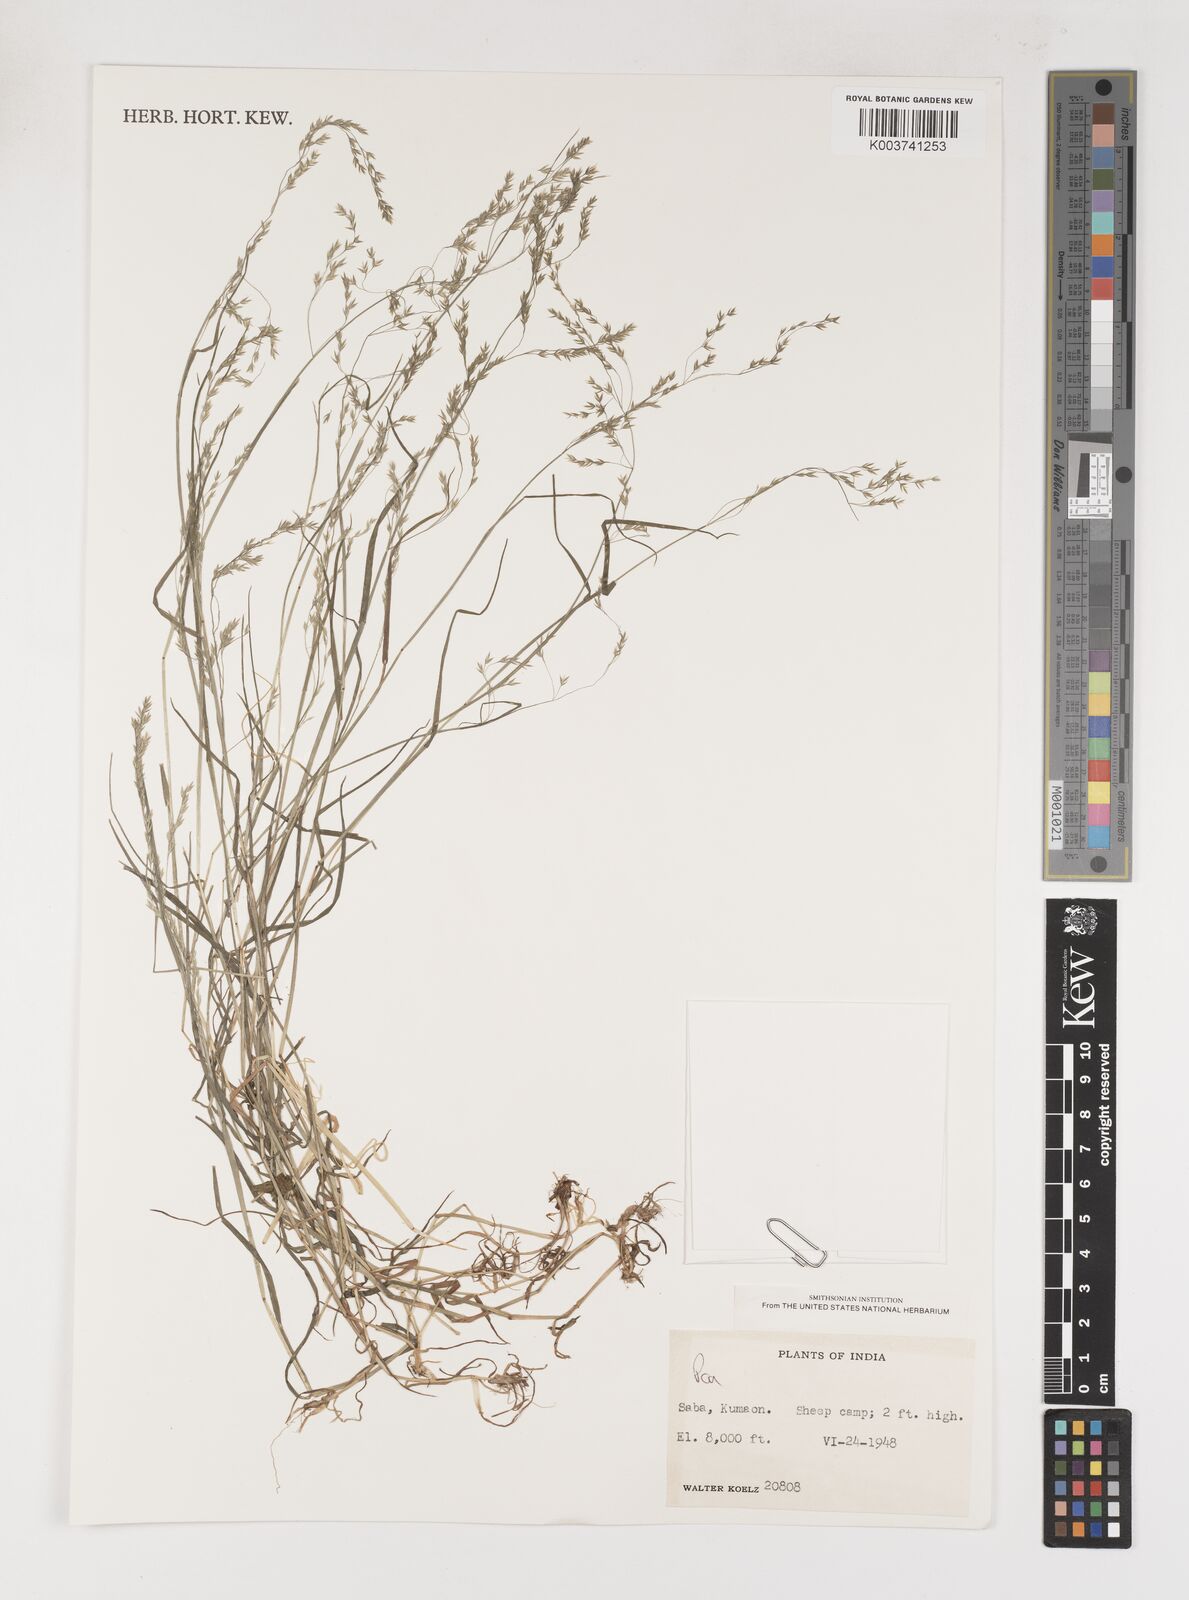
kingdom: Plantae
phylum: Tracheophyta
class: Liliopsida
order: Poales
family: Poaceae
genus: Poa
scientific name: Poa
